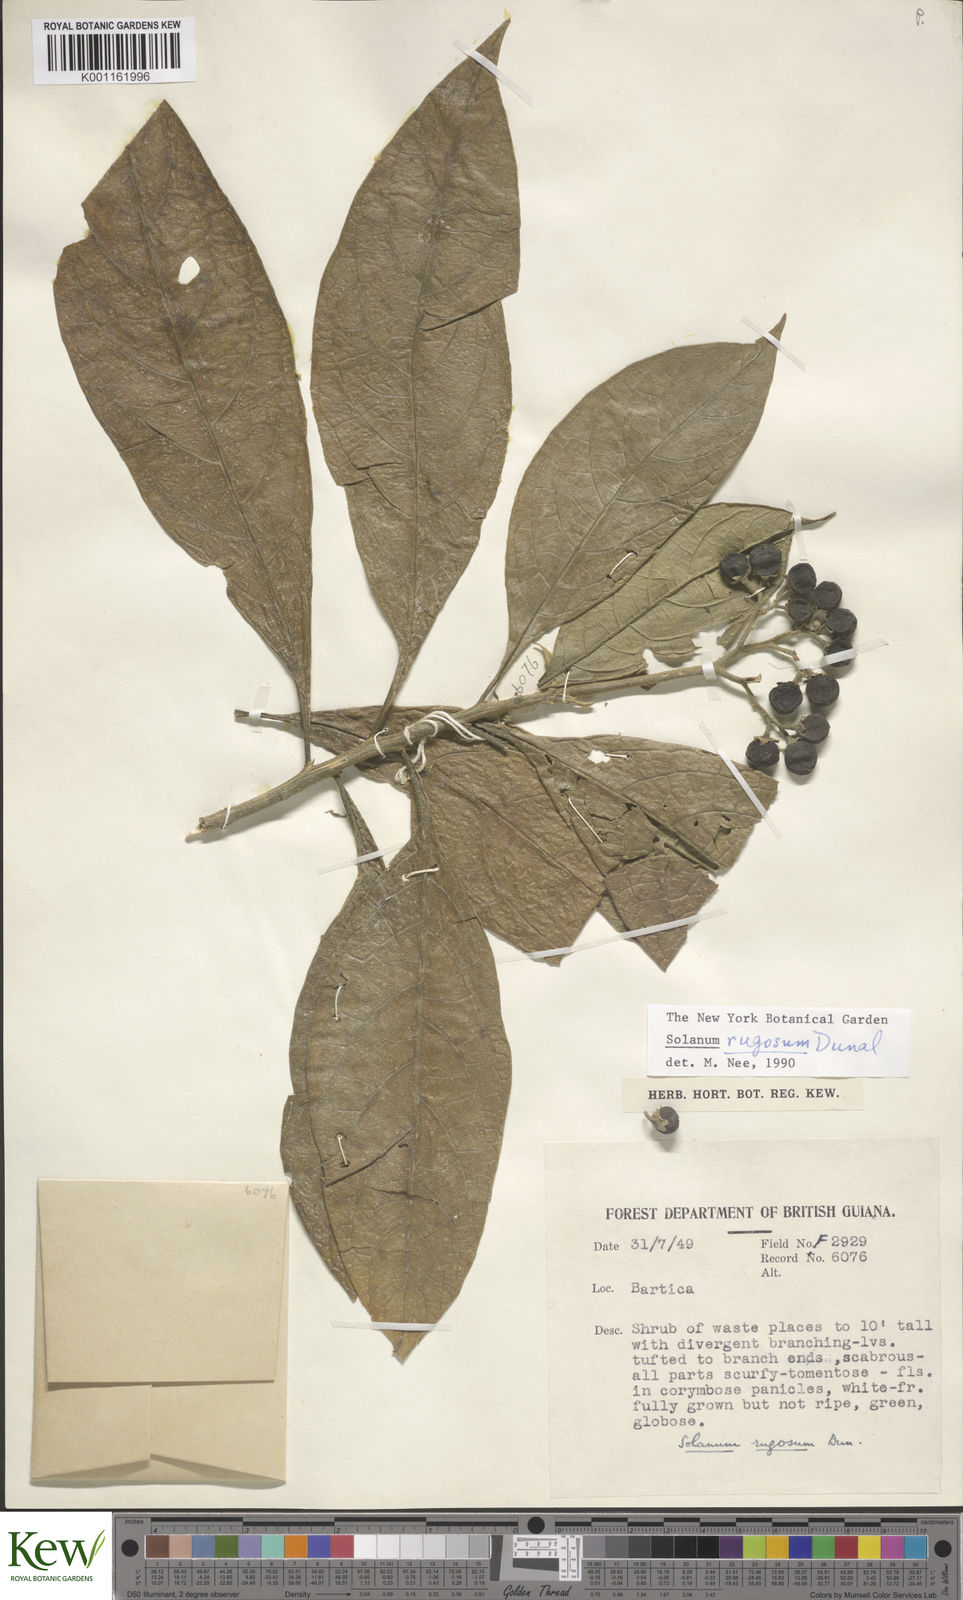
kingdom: Plantae
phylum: Tracheophyta
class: Magnoliopsida
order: Solanales
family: Solanaceae
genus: Solanum
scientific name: Solanum rugosum
